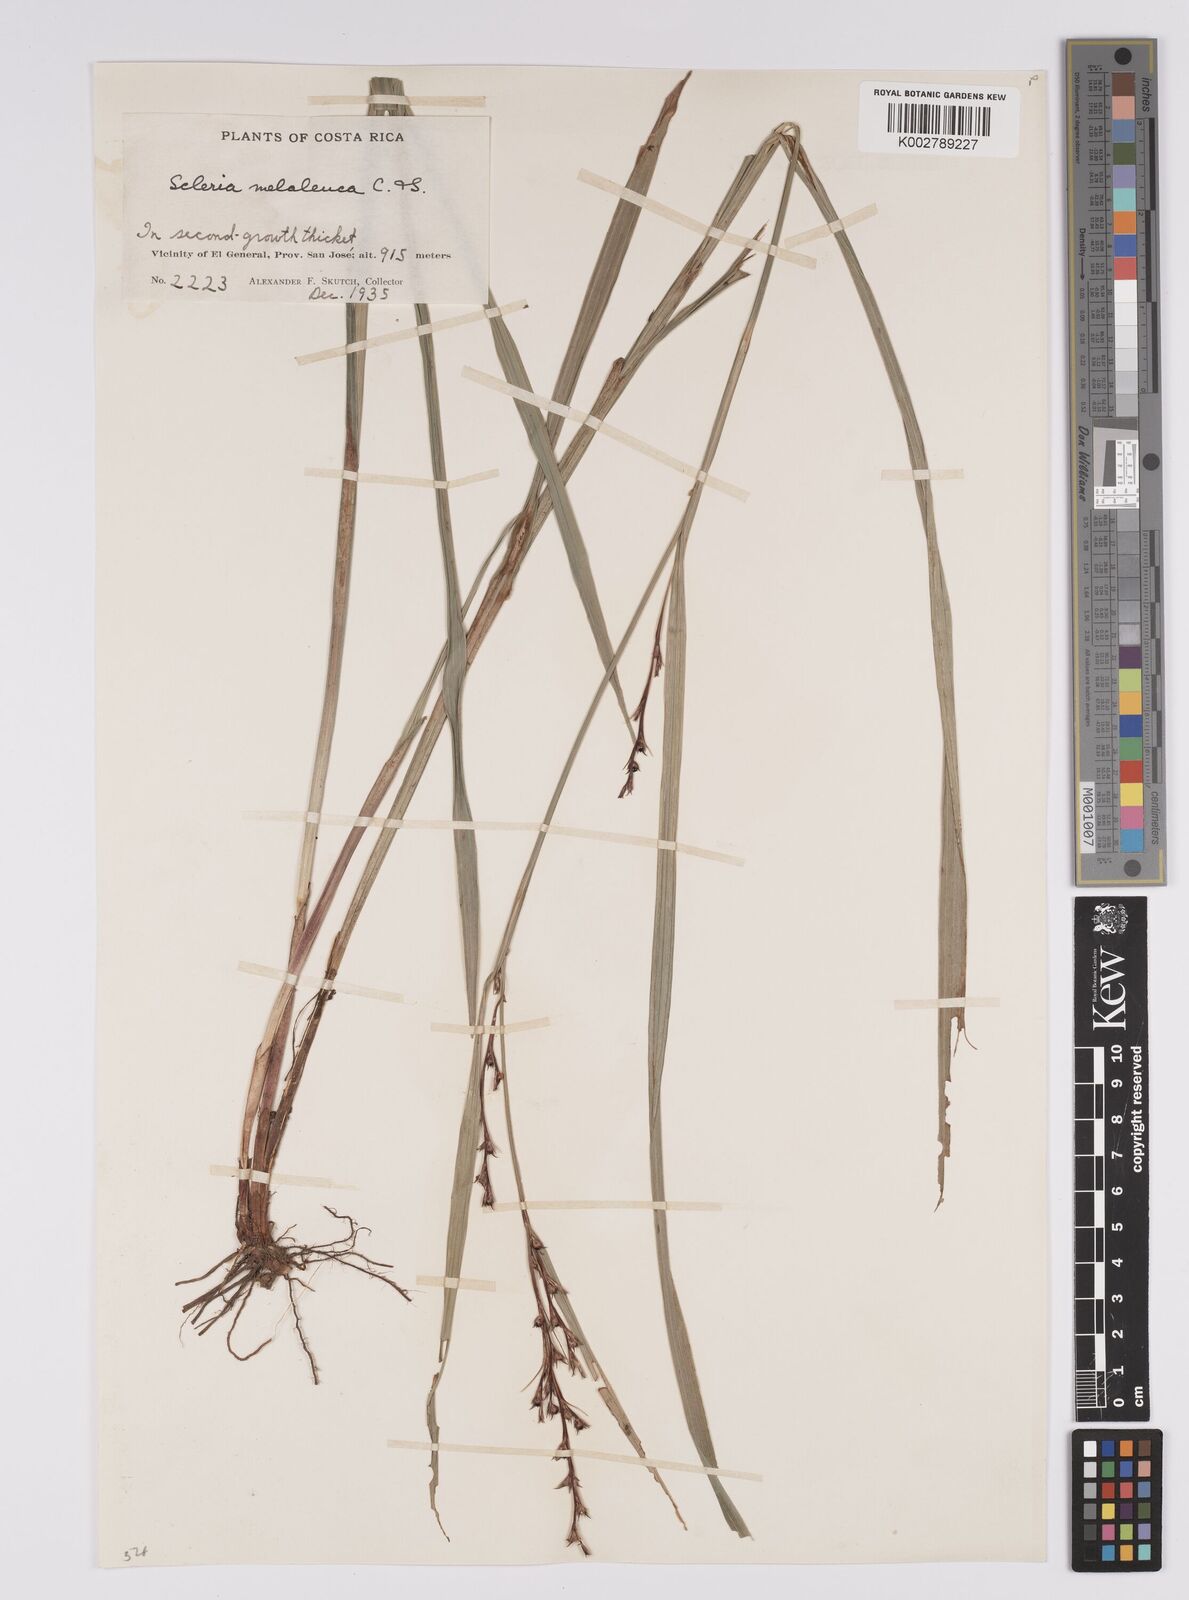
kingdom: Plantae
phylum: Tracheophyta
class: Liliopsida
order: Poales
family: Cyperaceae
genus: Scleria
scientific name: Scleria gaertneri
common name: Cortadera blanca
